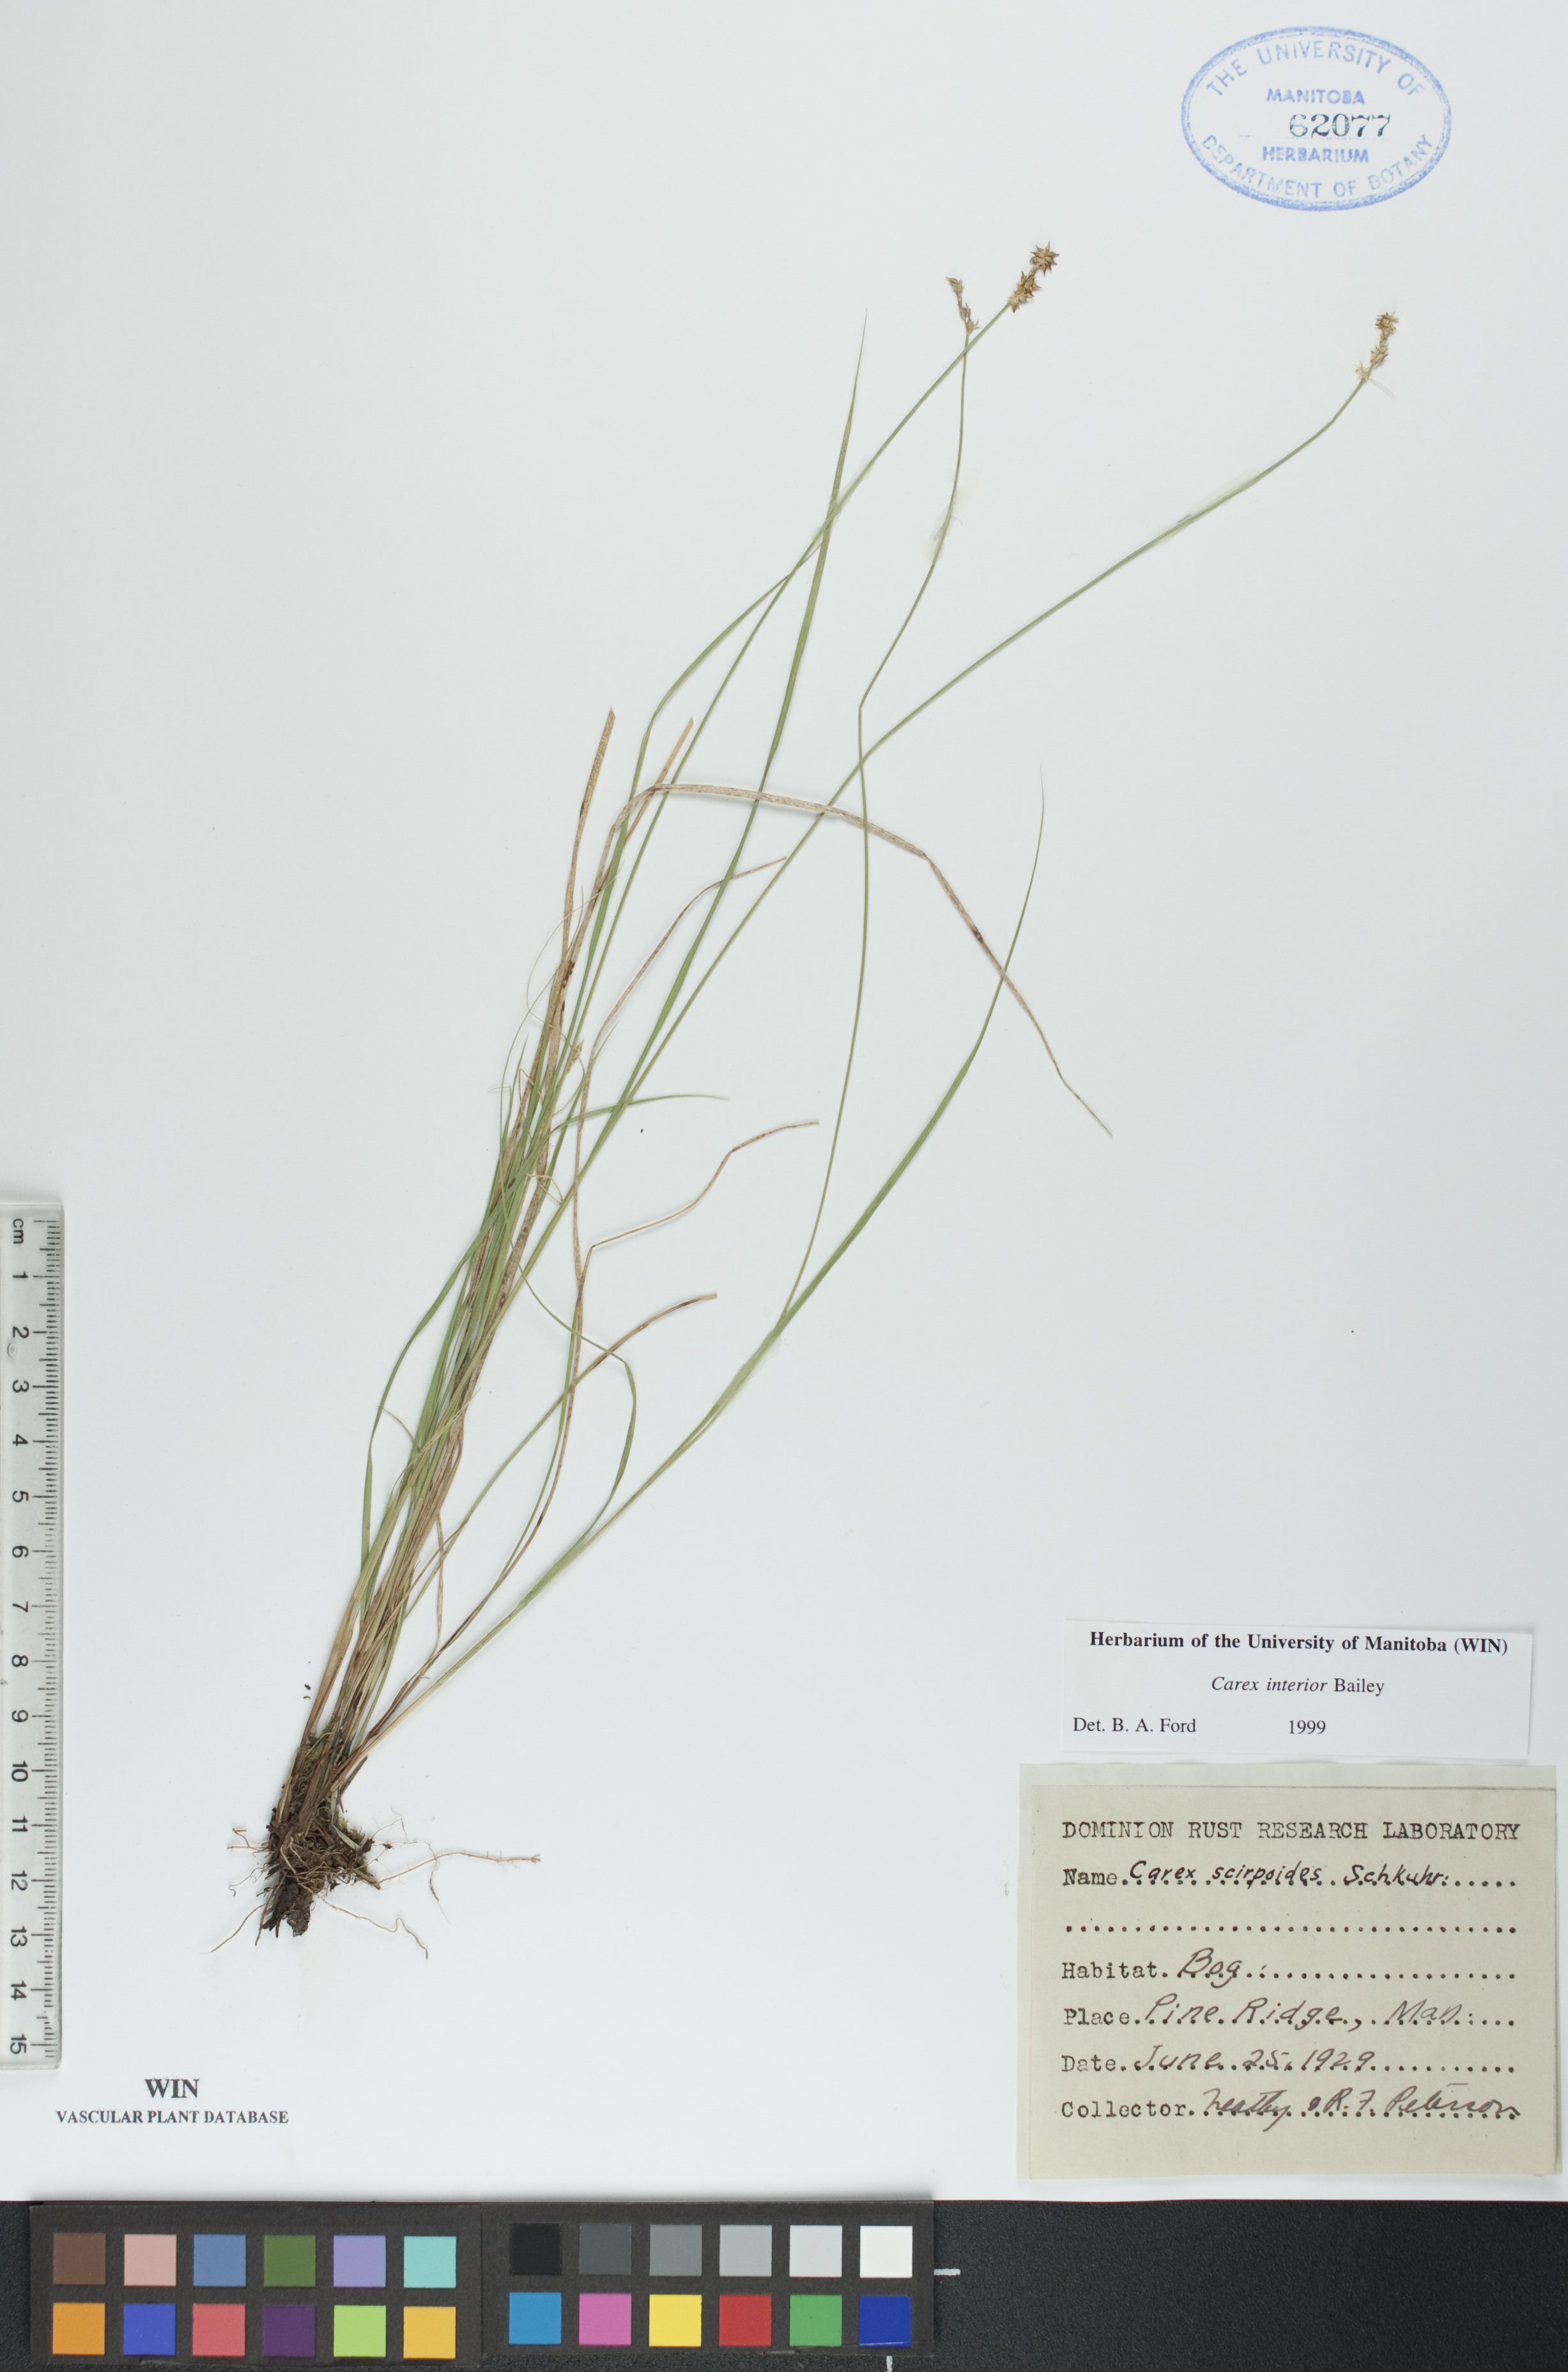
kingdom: Plantae
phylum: Tracheophyta
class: Liliopsida
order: Poales
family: Cyperaceae
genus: Carex
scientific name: Carex interior
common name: Inland sedge
